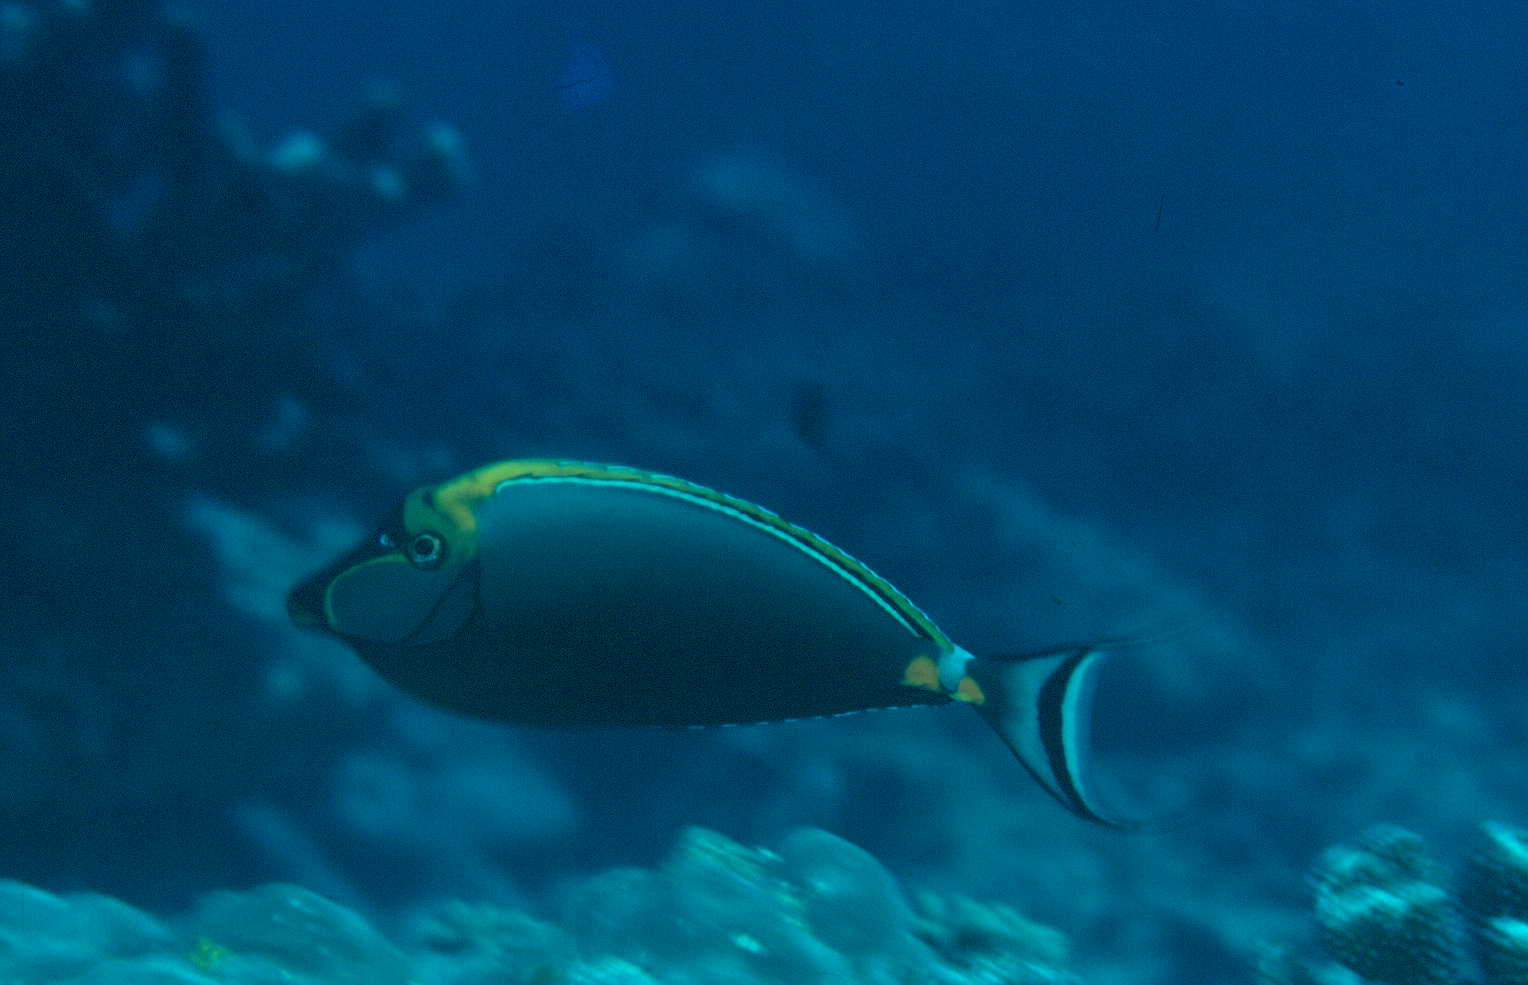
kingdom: Animalia
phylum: Chordata
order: Perciformes
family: Acanthuridae
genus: Naso
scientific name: Naso lituratus
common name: Orangespine unicornfish
